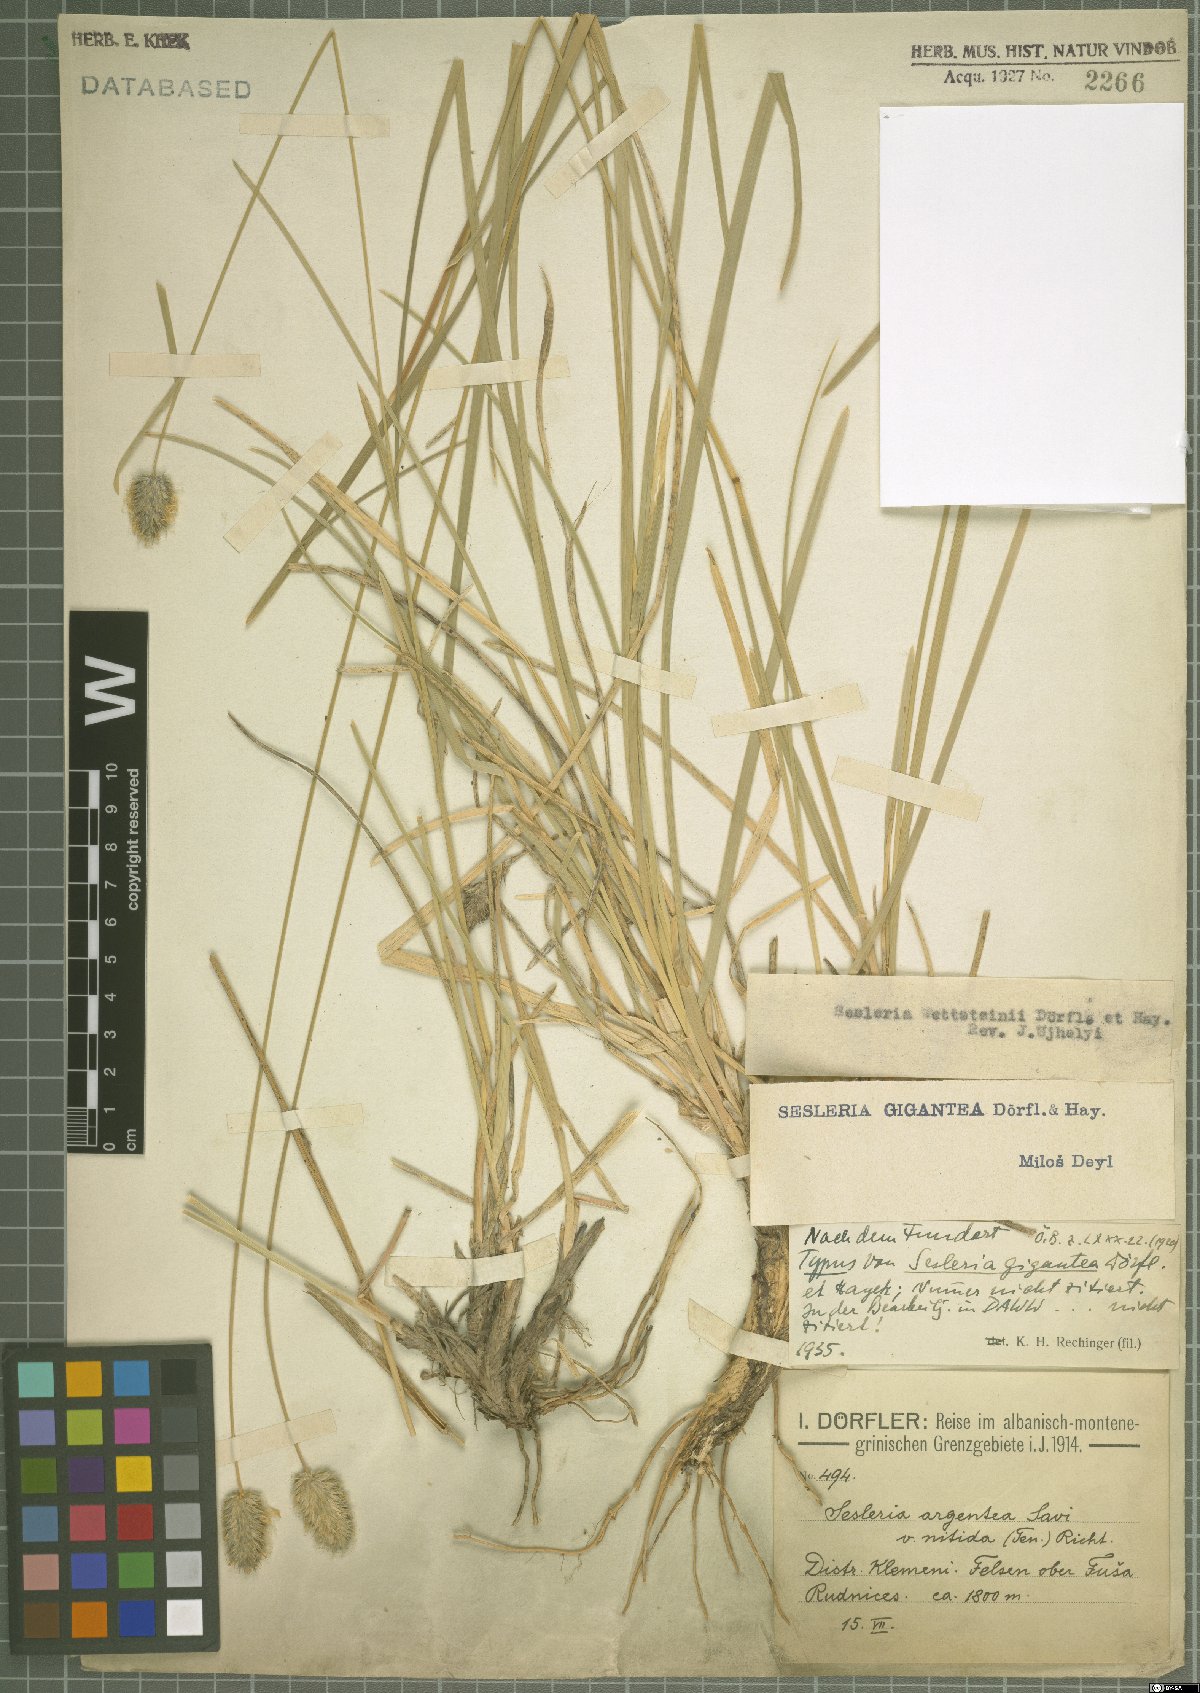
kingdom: Plantae
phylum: Tracheophyta
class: Liliopsida
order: Poales
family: Poaceae
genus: Sesleria
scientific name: Sesleria wettsteinii
